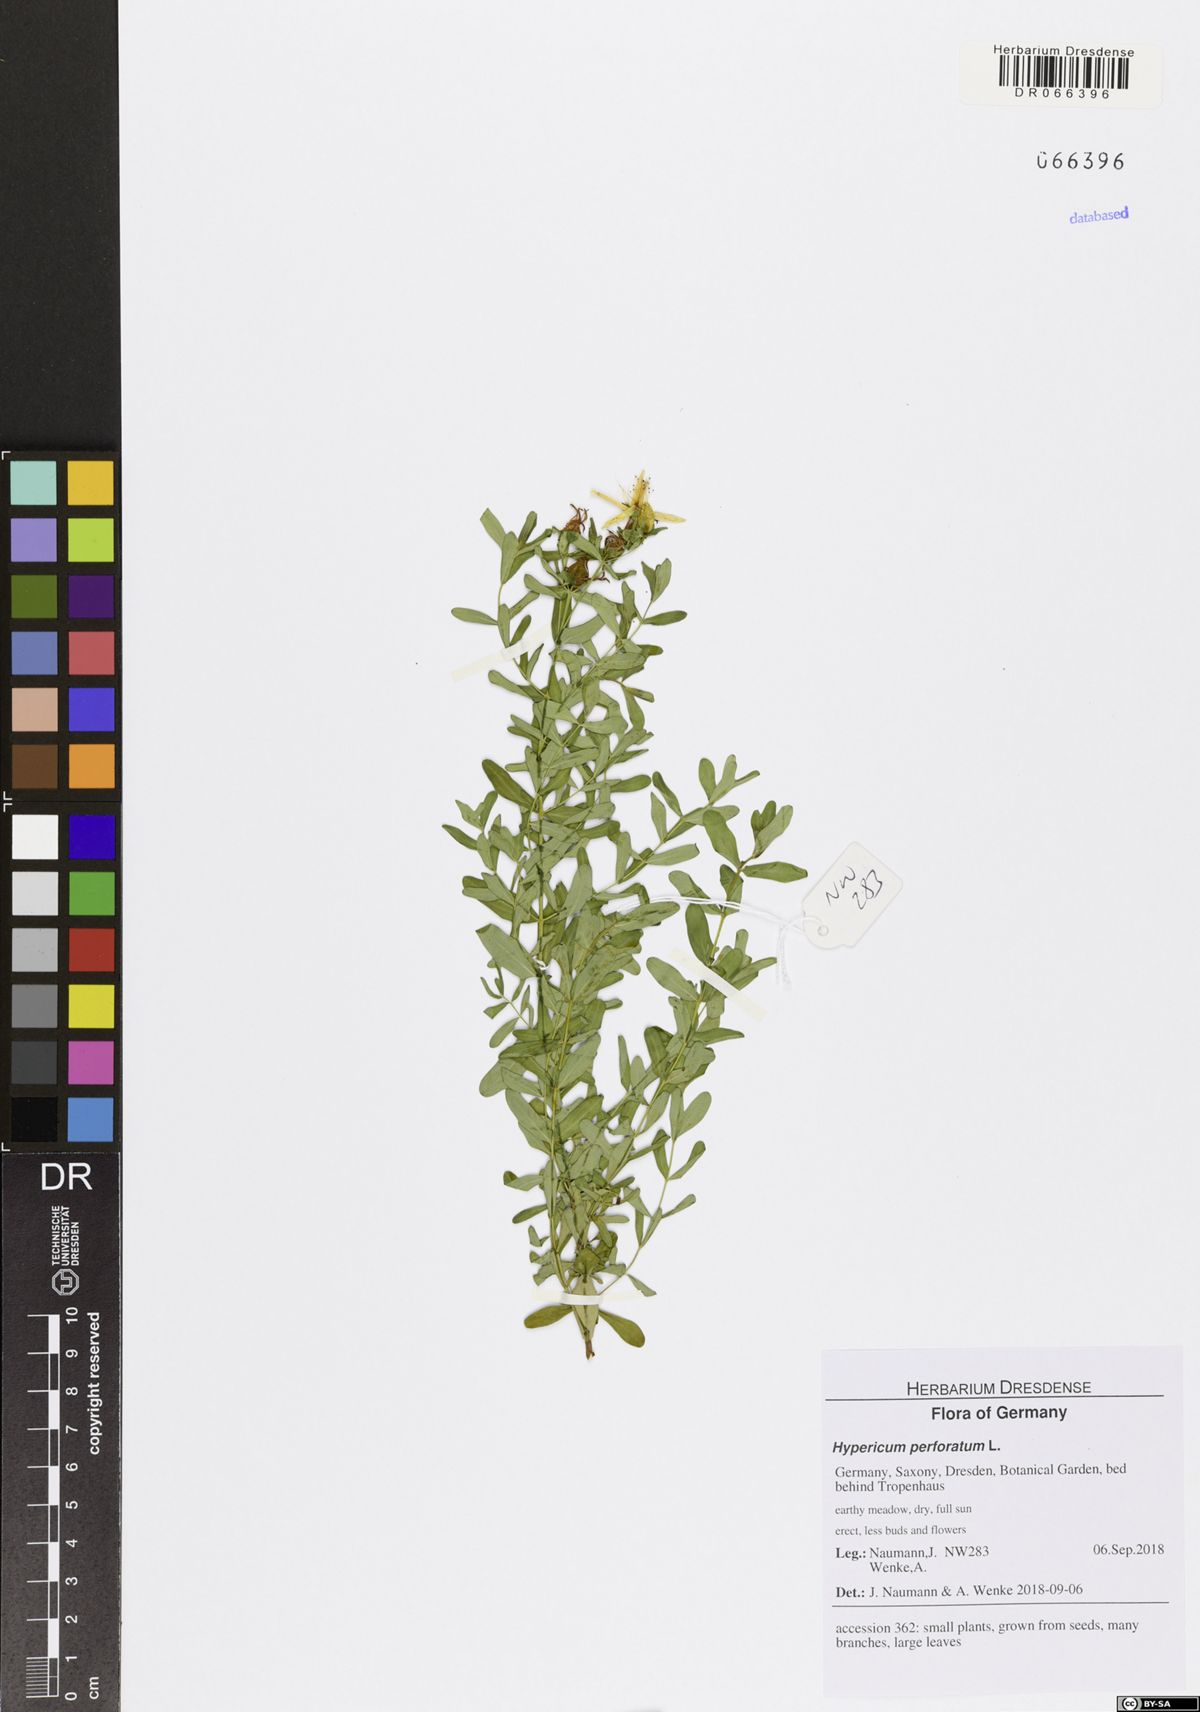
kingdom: Plantae
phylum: Tracheophyta
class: Magnoliopsida
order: Malpighiales
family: Hypericaceae
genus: Hypericum
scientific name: Hypericum perforatum
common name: Common st. johnswort
